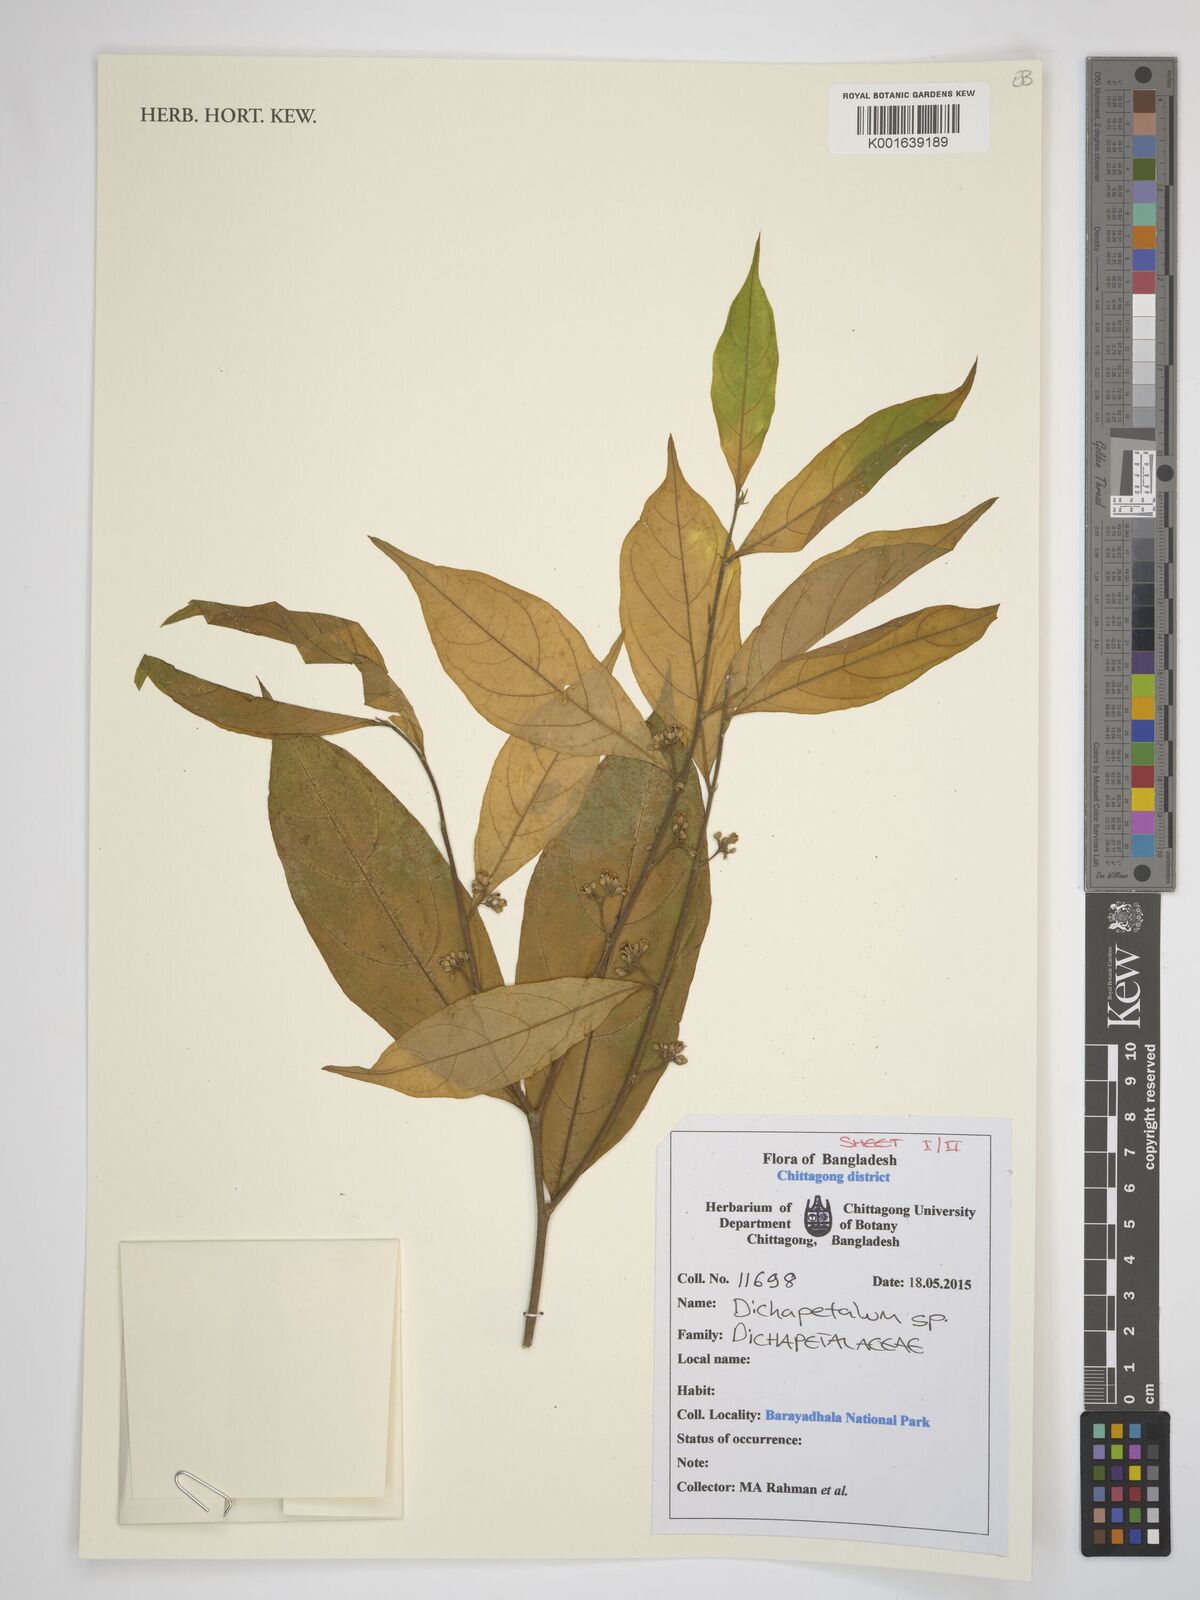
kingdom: Plantae
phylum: Tracheophyta
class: Magnoliopsida
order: Malpighiales
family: Dichapetalaceae
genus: Dichapetalum
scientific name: Dichapetalum
